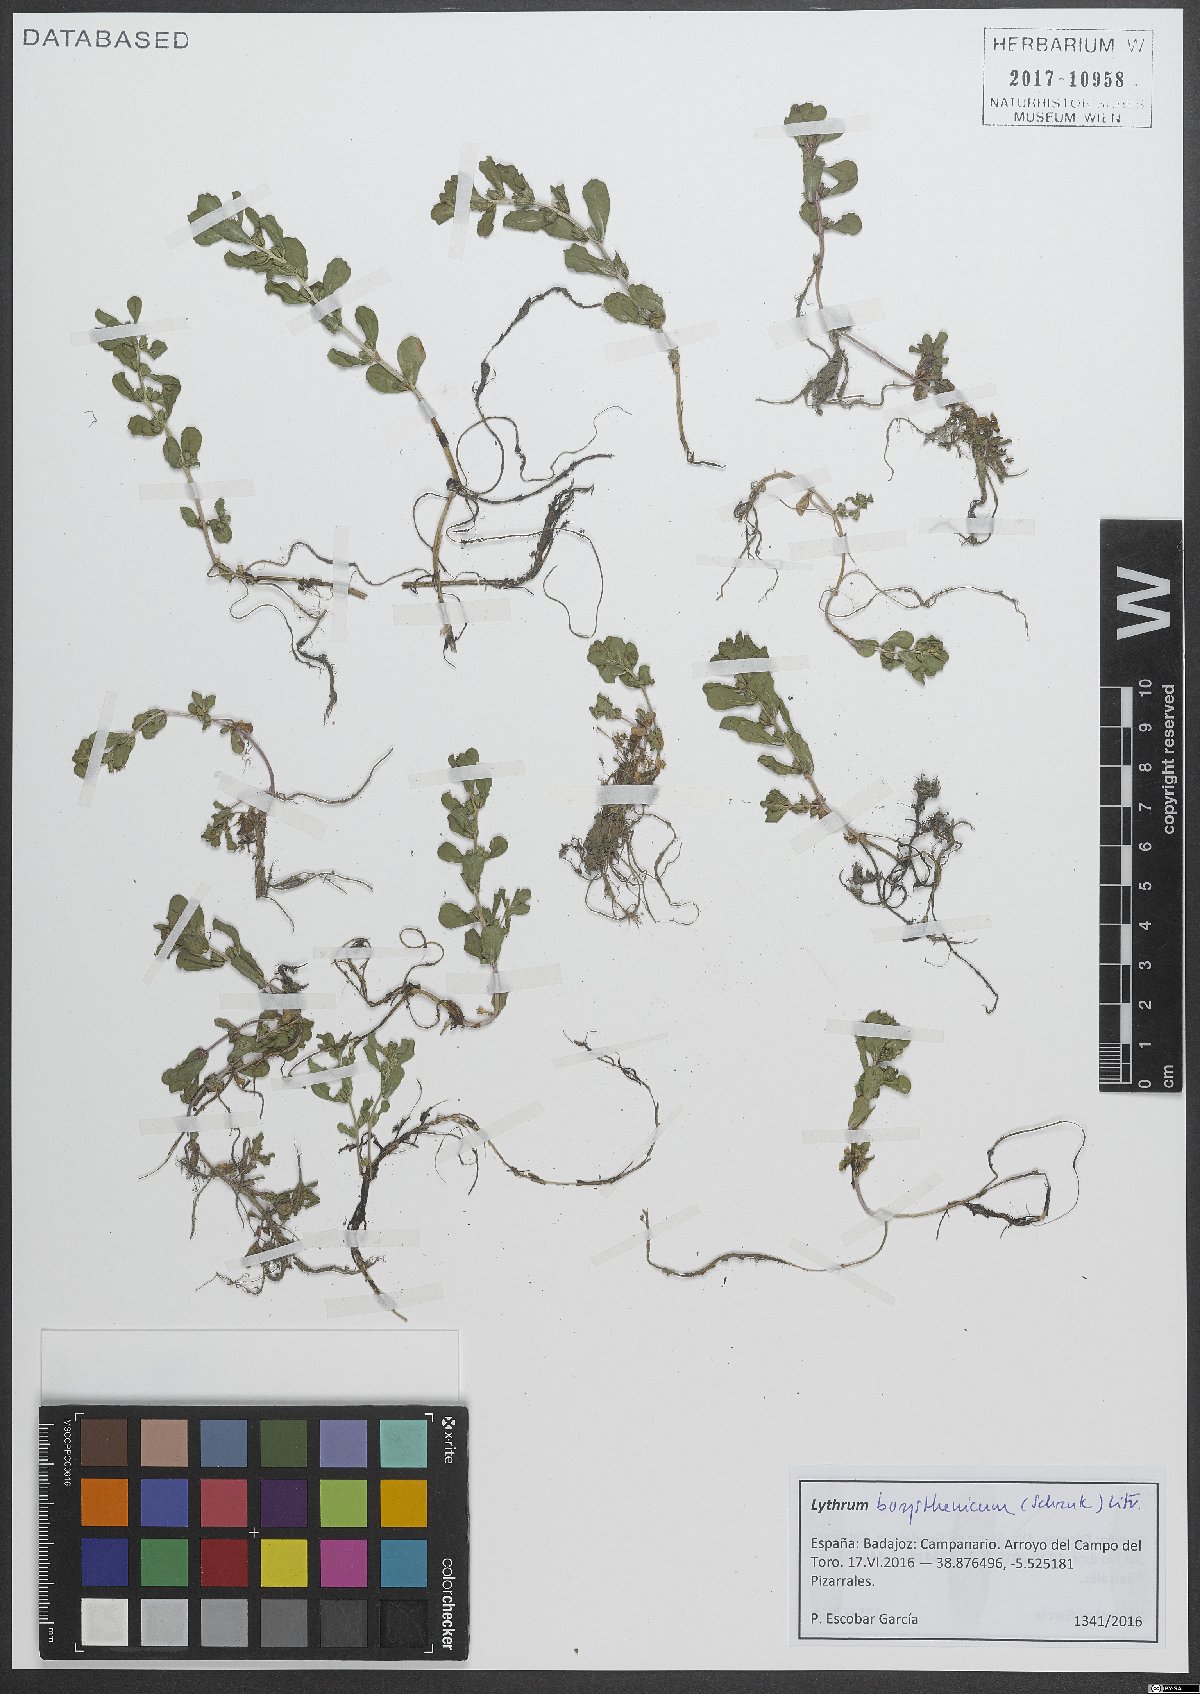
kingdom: Plantae
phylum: Tracheophyta
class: Magnoliopsida
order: Myrtales
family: Lythraceae
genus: Lythrum
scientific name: Lythrum borysthenicum
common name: Loosestrife
